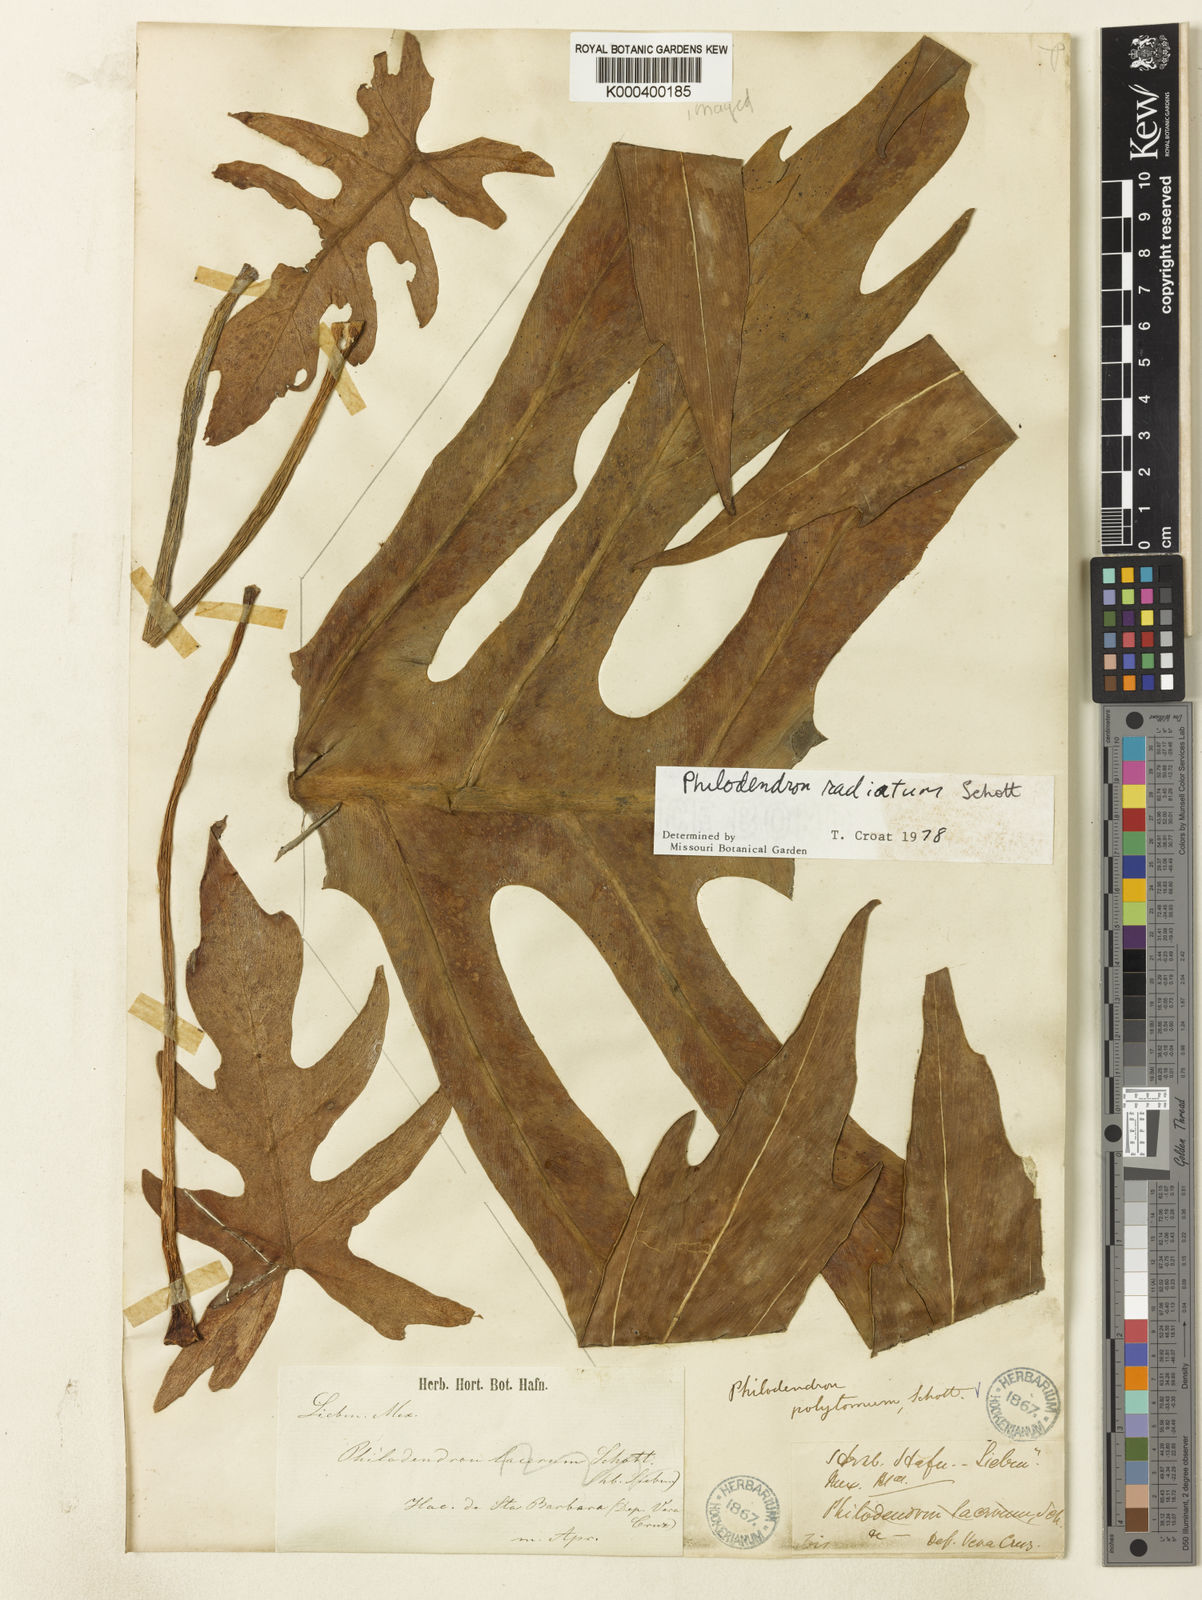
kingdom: Plantae
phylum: Tracheophyta
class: Liliopsida
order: Alismatales
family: Araceae
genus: Philodendron
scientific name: Philodendron radiatum
